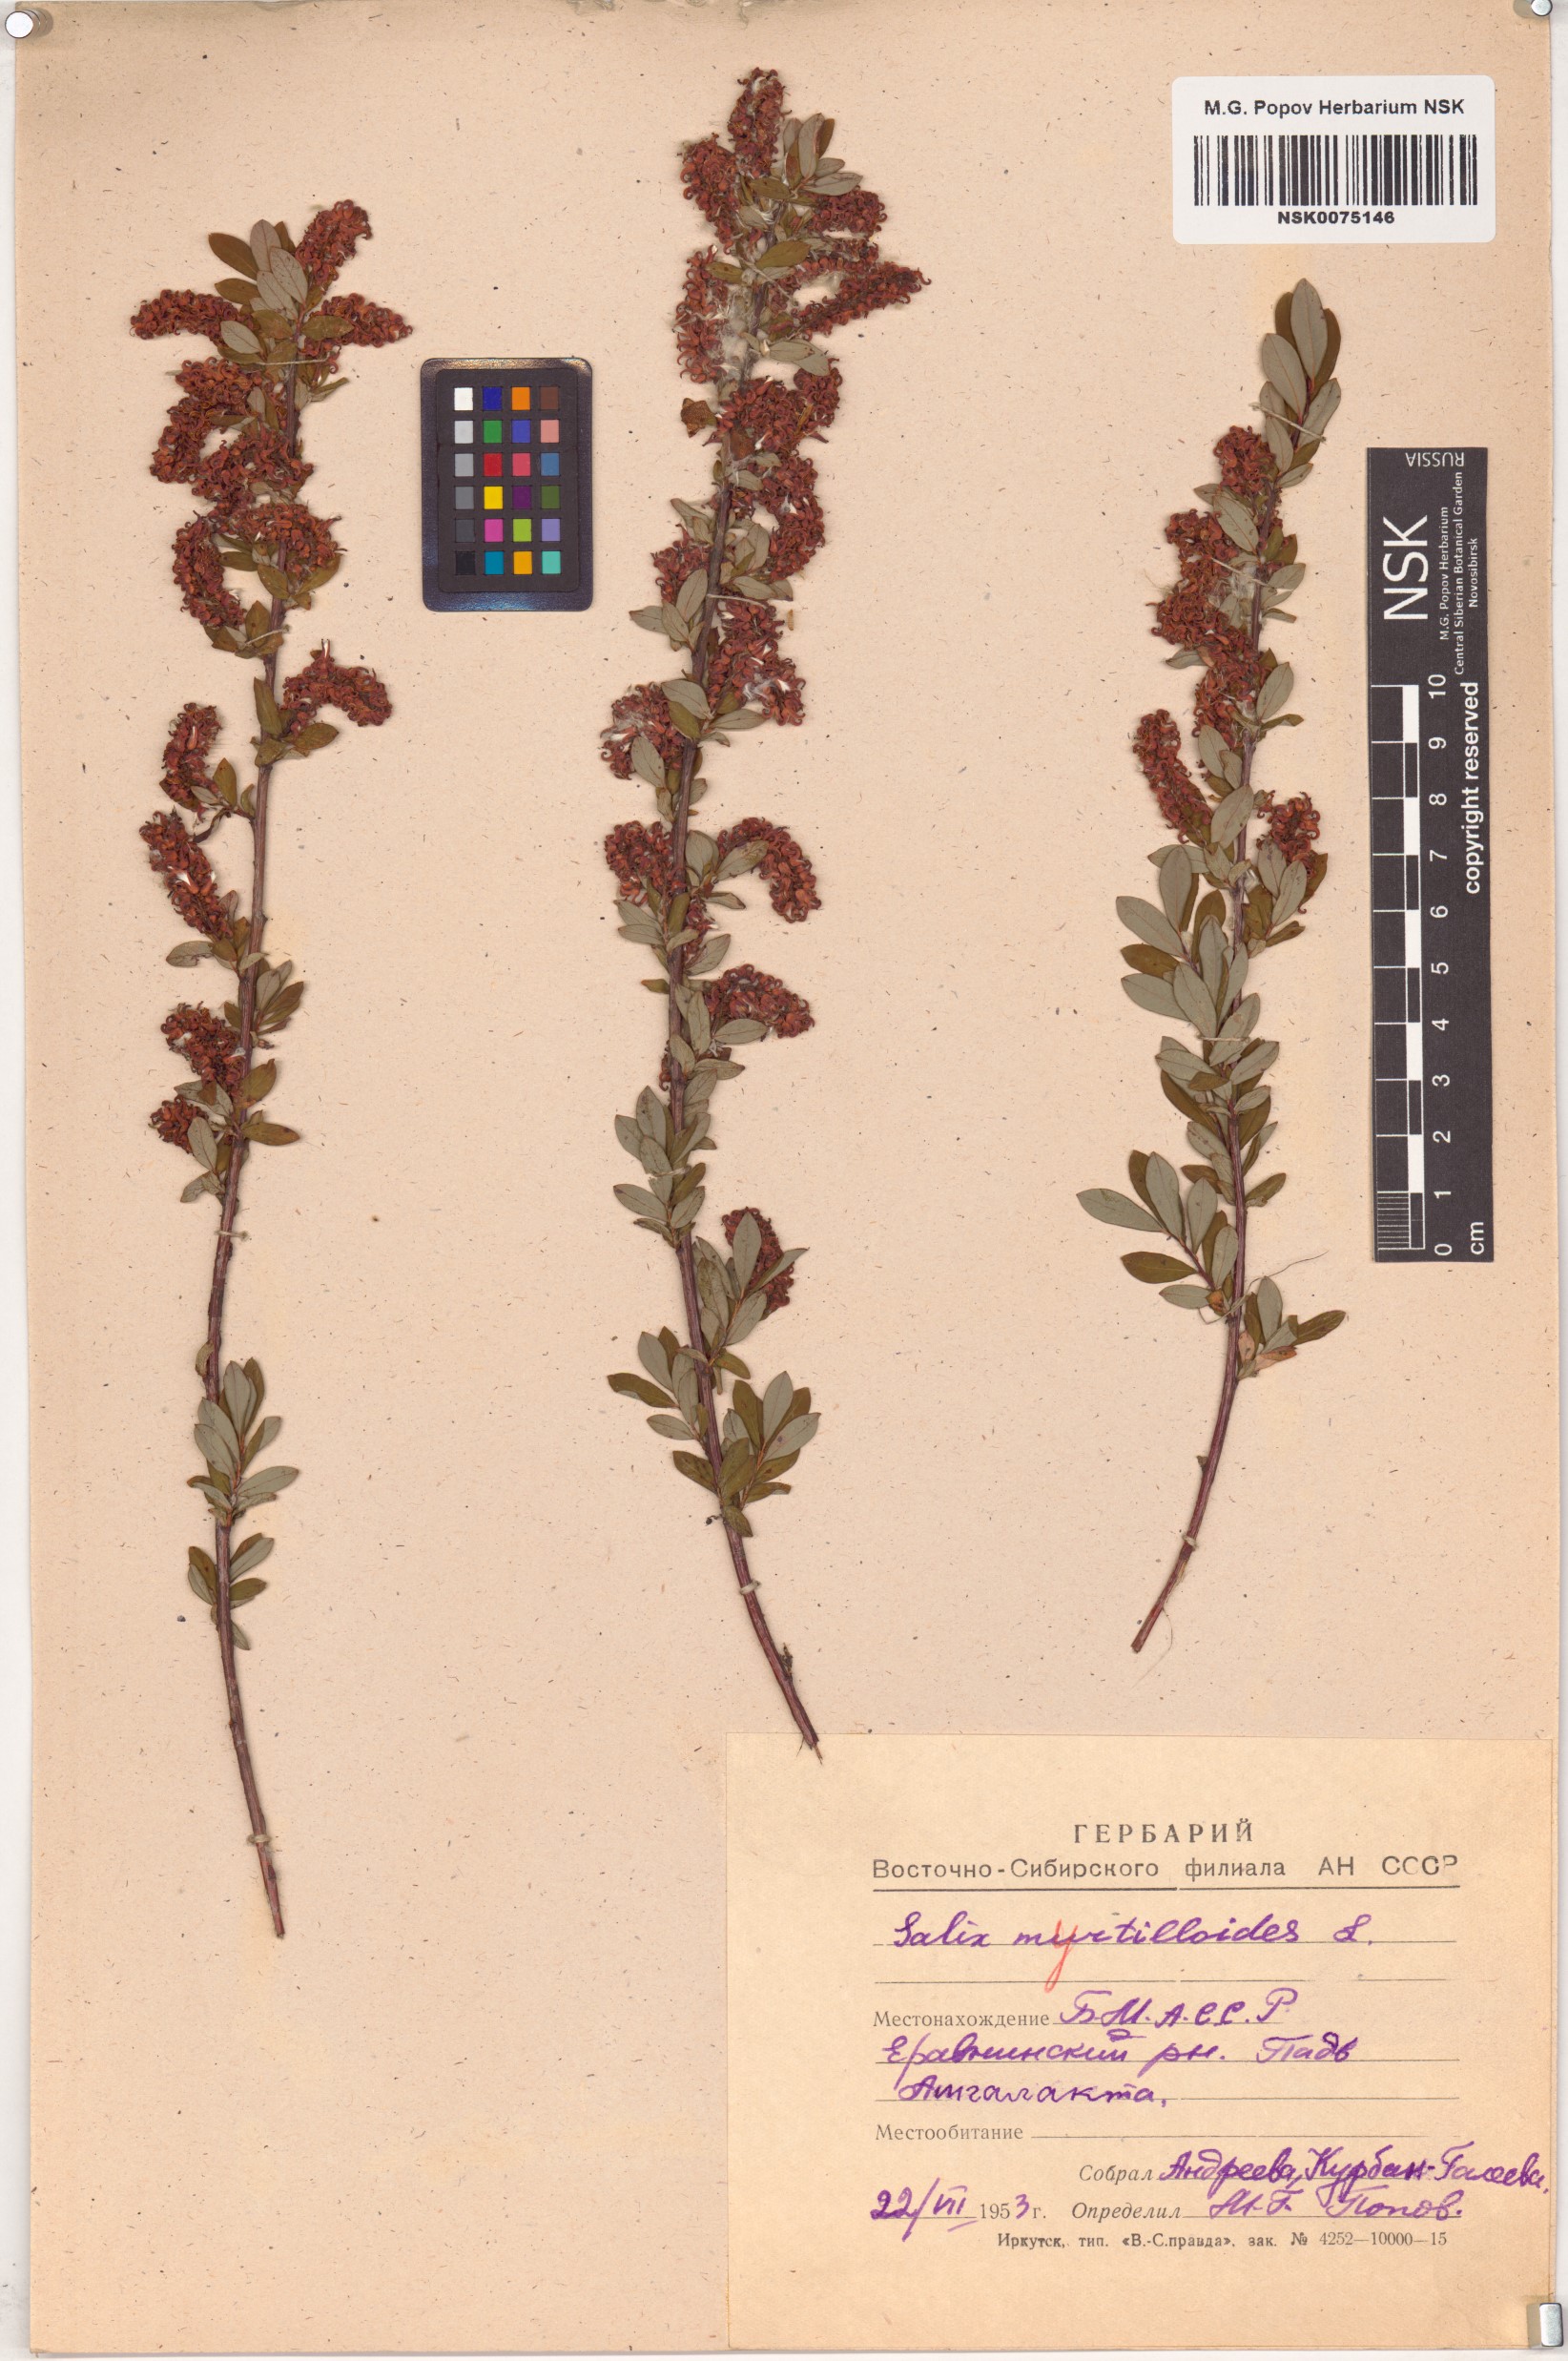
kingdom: Plantae
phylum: Tracheophyta
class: Magnoliopsida
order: Malpighiales
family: Salicaceae
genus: Salix
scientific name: Salix myrtilloides
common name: Myrtle-leaved willow
